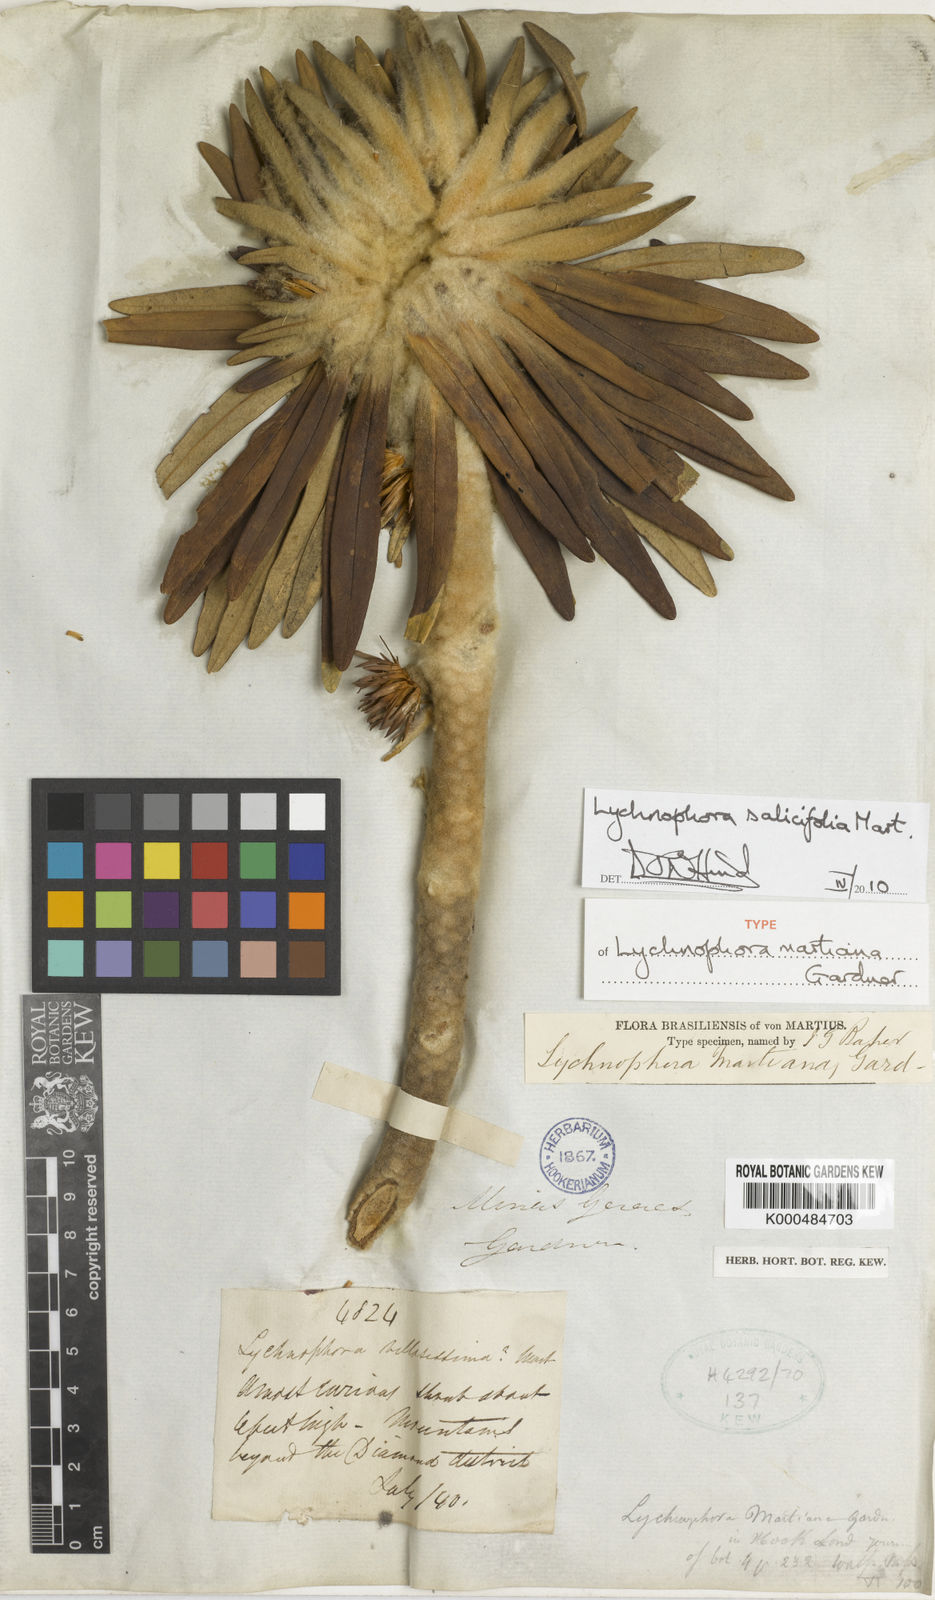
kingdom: Plantae
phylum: Tracheophyta
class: Magnoliopsida
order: Asterales
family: Asteraceae
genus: Lychnophora
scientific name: Lychnophora salicifolia
